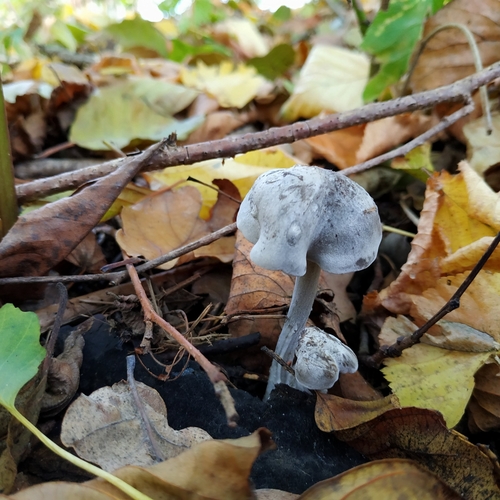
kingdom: Fungi
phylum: Basidiomycota
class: Agaricomycetes
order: Agaricales
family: Lyophyllaceae
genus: Tephrocybe
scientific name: Tephrocybe rancida
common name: Rancid greyling
